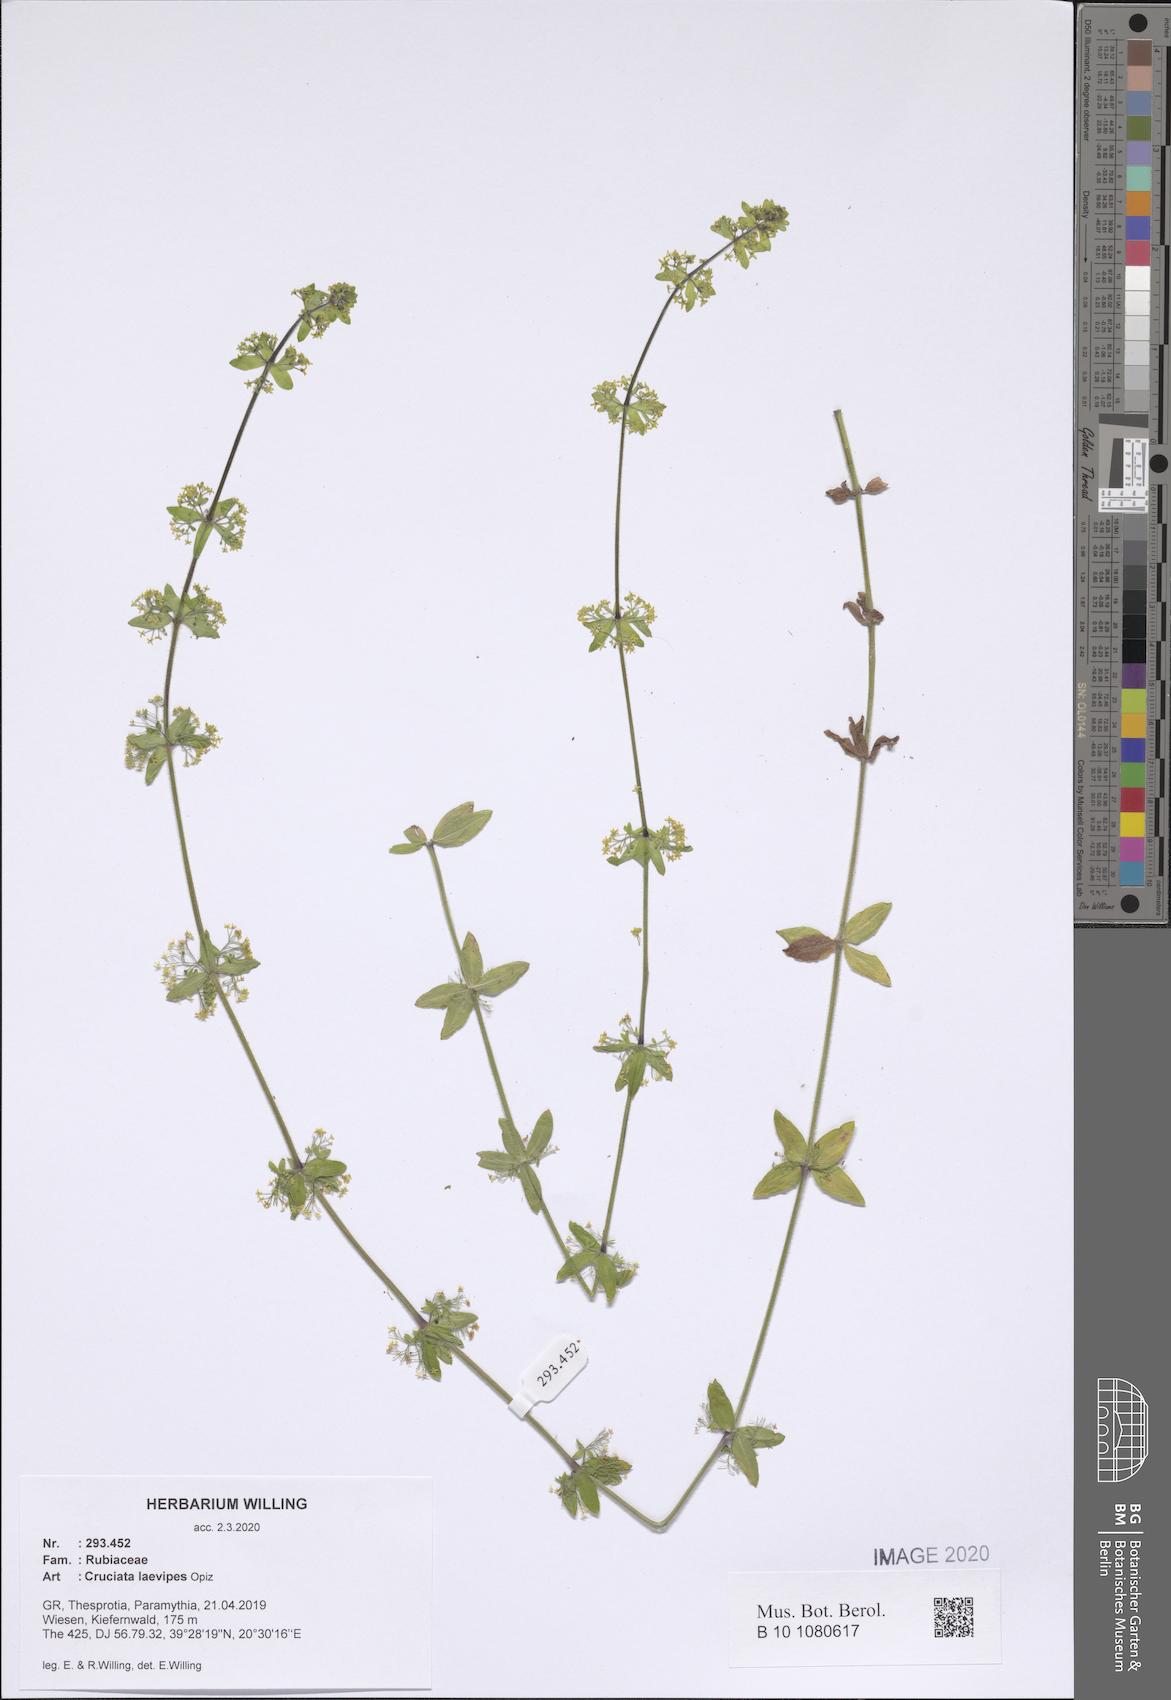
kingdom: Plantae
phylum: Tracheophyta
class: Magnoliopsida
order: Gentianales
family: Rubiaceae
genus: Cruciata
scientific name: Cruciata laevipes
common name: Crosswort
